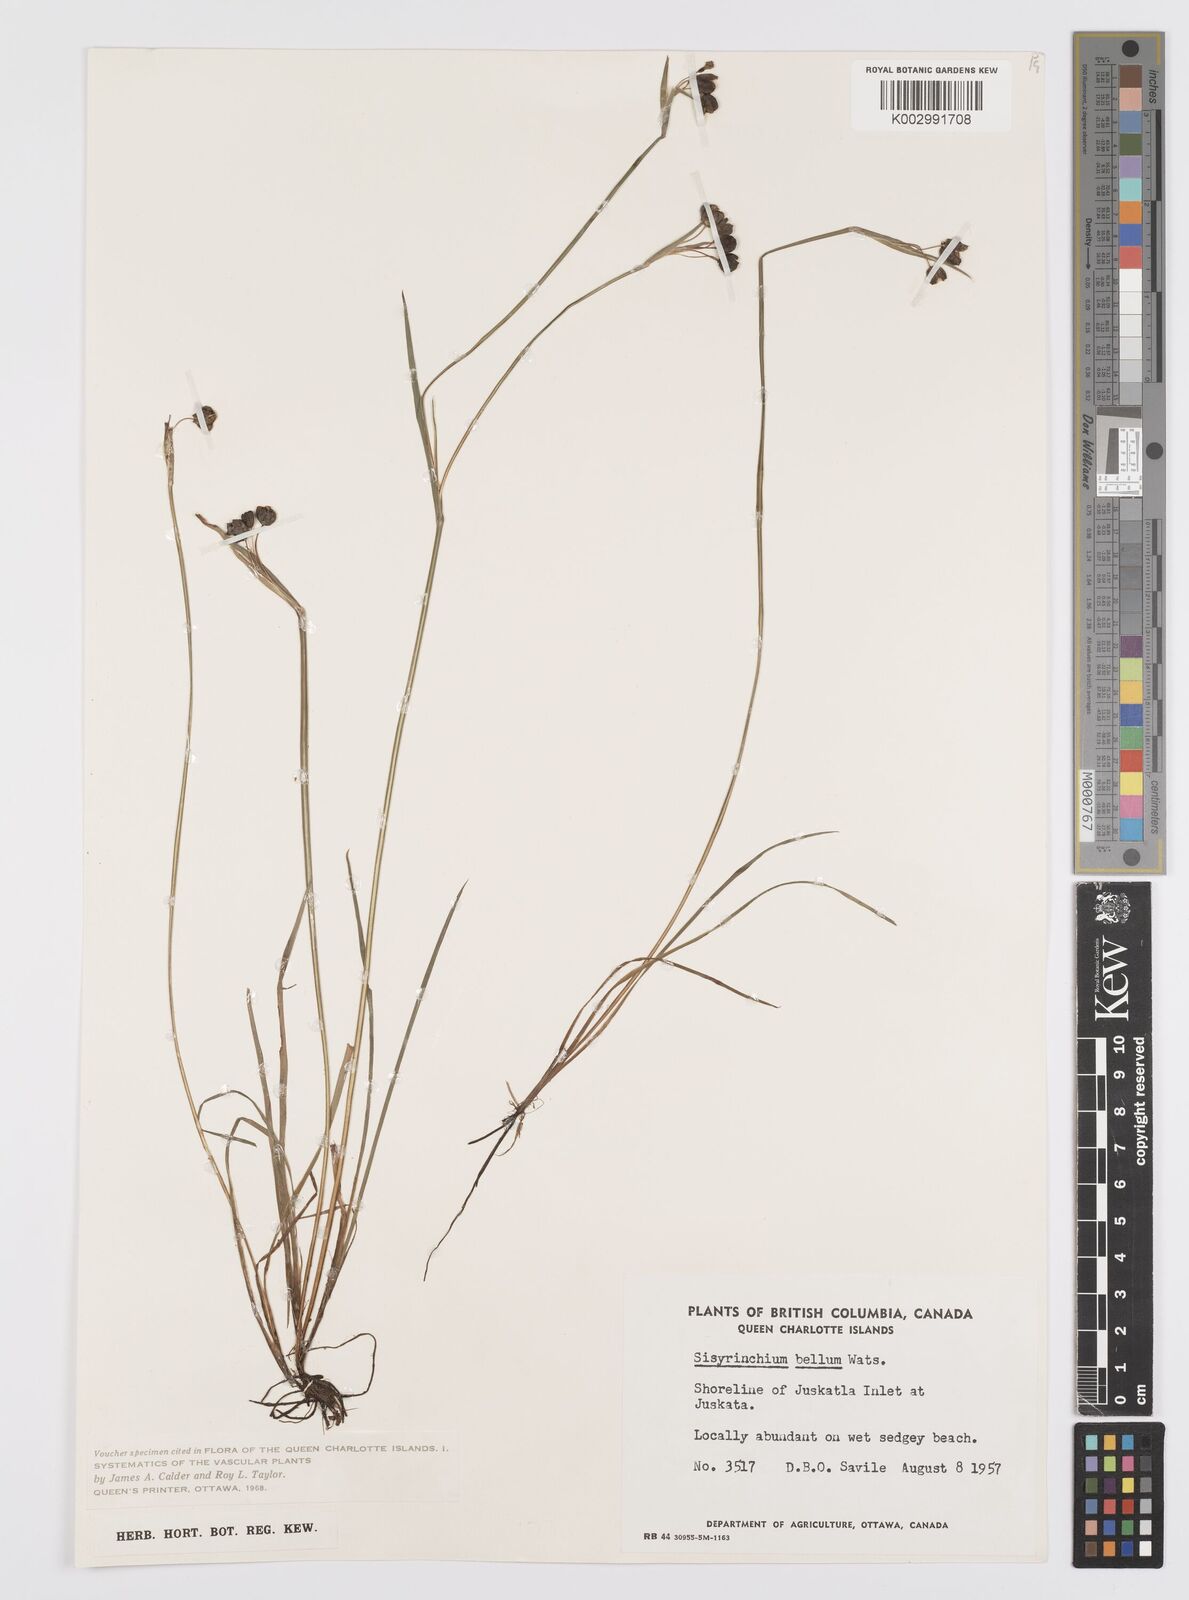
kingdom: Plantae
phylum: Tracheophyta
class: Liliopsida
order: Asparagales
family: Iridaceae
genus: Sisyrinchium
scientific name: Sisyrinchium bellum
